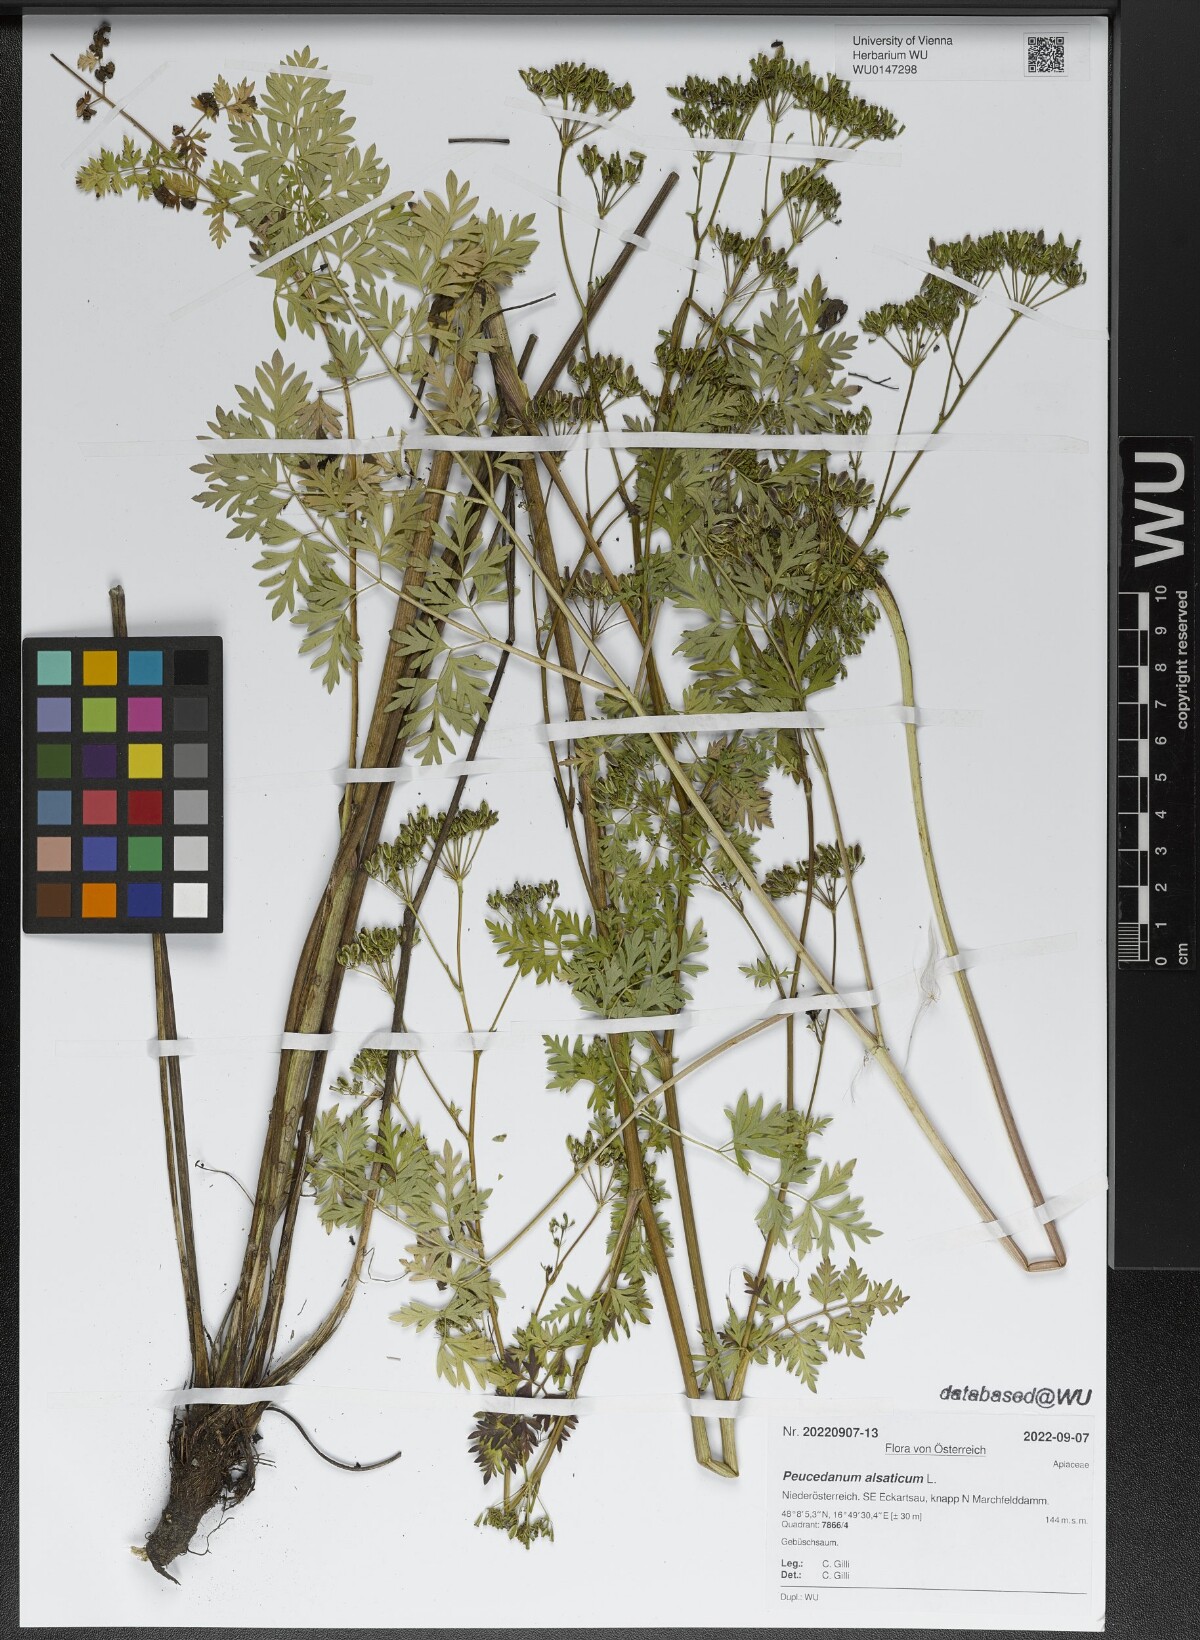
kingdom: Plantae
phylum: Tracheophyta
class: Magnoliopsida
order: Apiales
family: Apiaceae
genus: Xanthoselinum
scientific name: Xanthoselinum alsaticum
